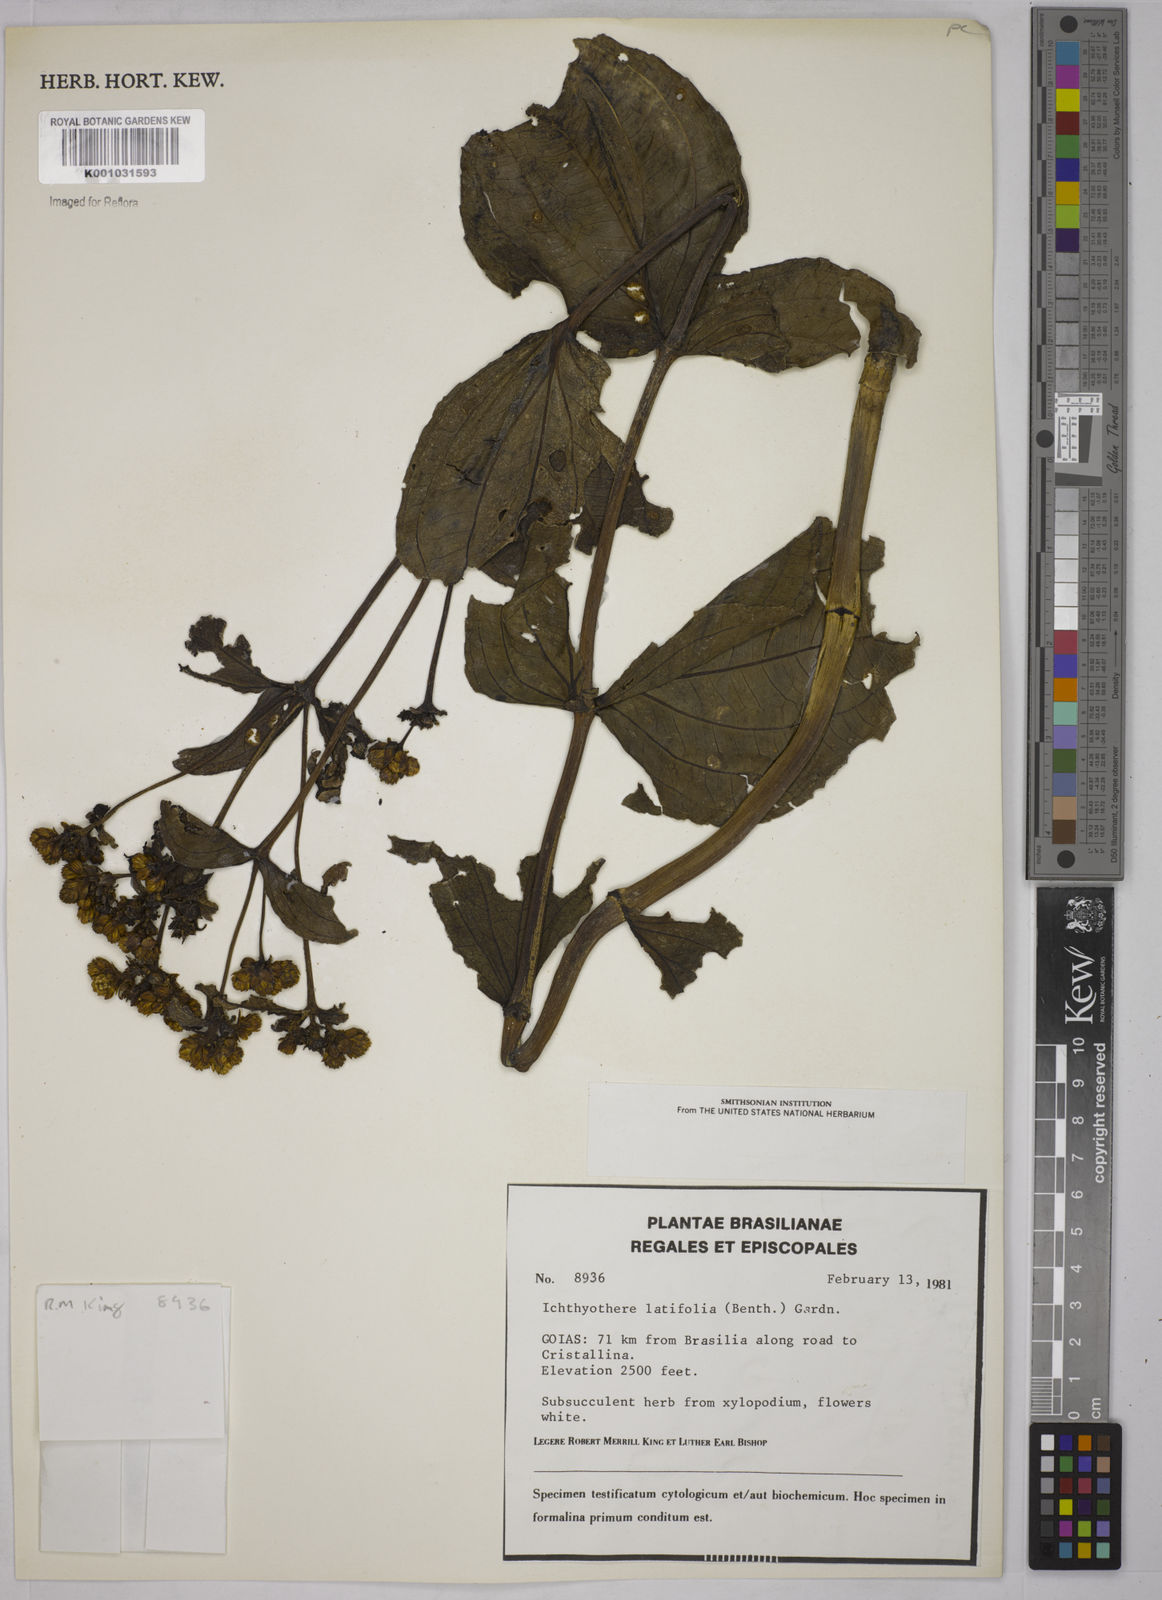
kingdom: Plantae
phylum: Tracheophyta
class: Magnoliopsida
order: Asterales
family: Asteraceae
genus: Ichthyothere
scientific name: Ichthyothere latifolia
